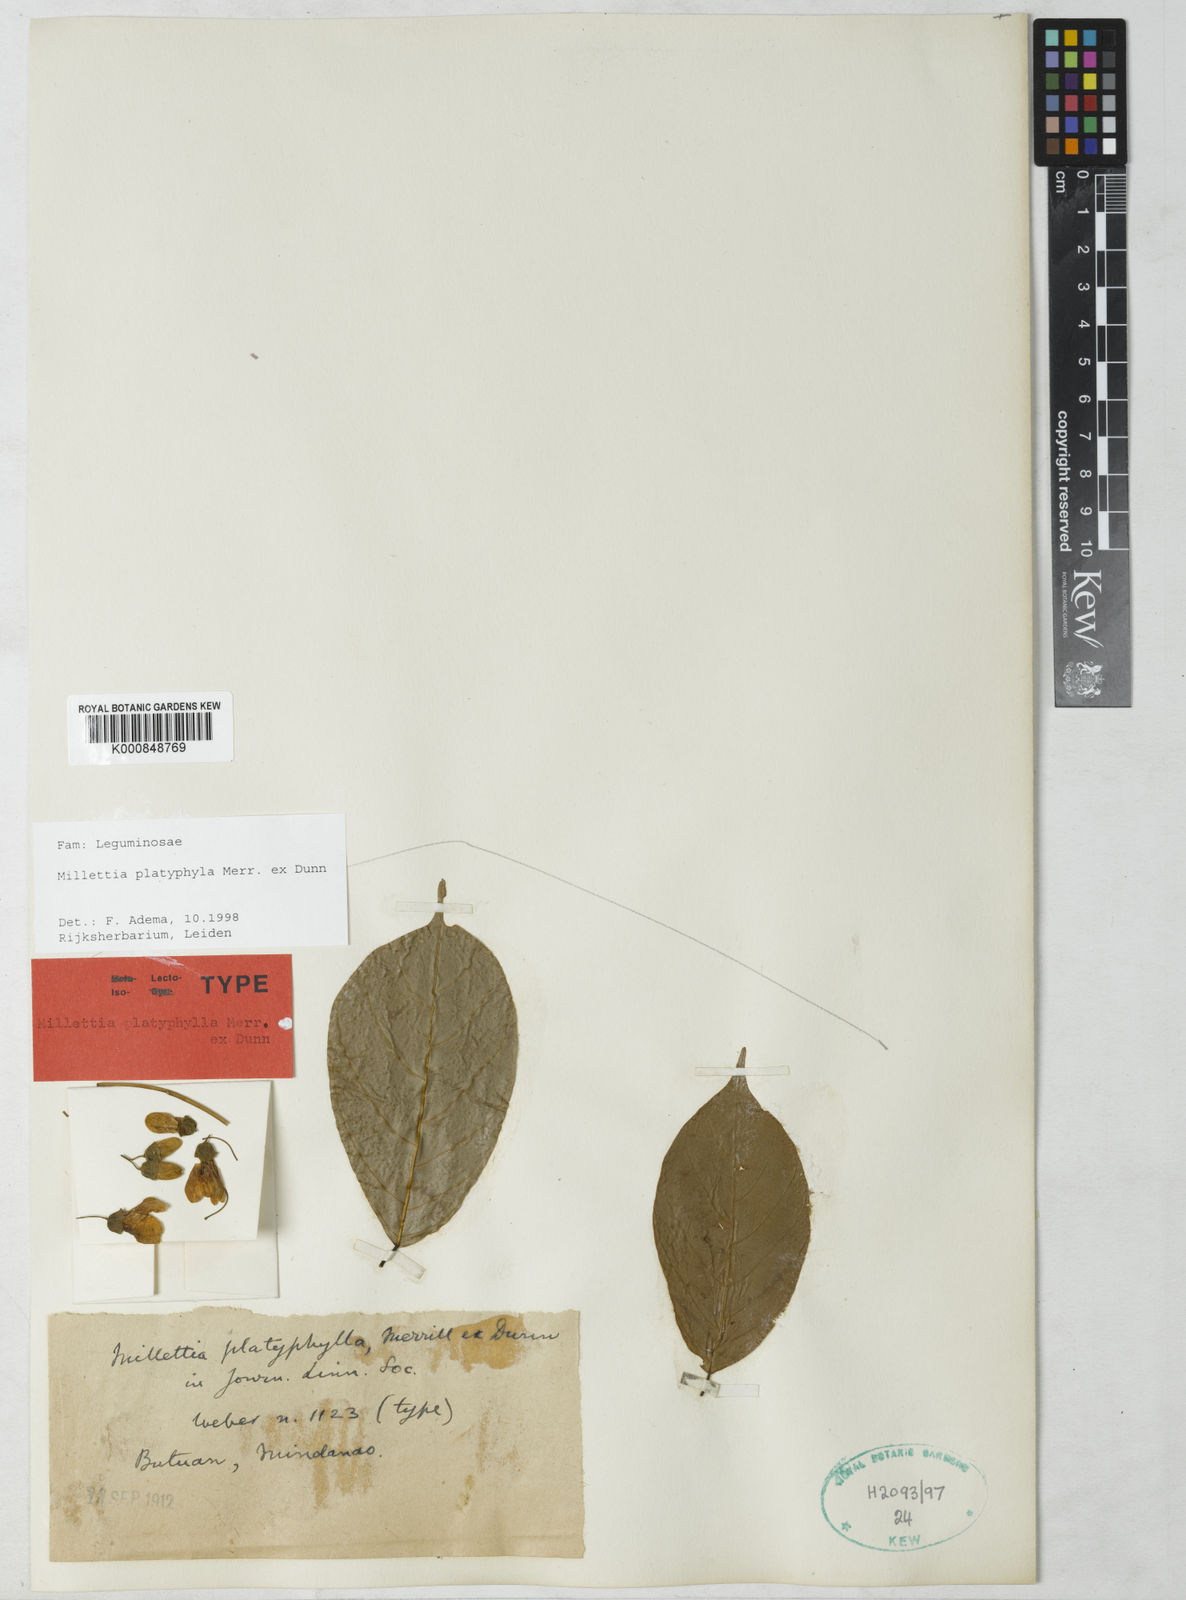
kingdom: Plantae
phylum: Tracheophyta
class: Magnoliopsida
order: Fabales
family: Fabaceae
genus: Millettia
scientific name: Millettia platyphylla
